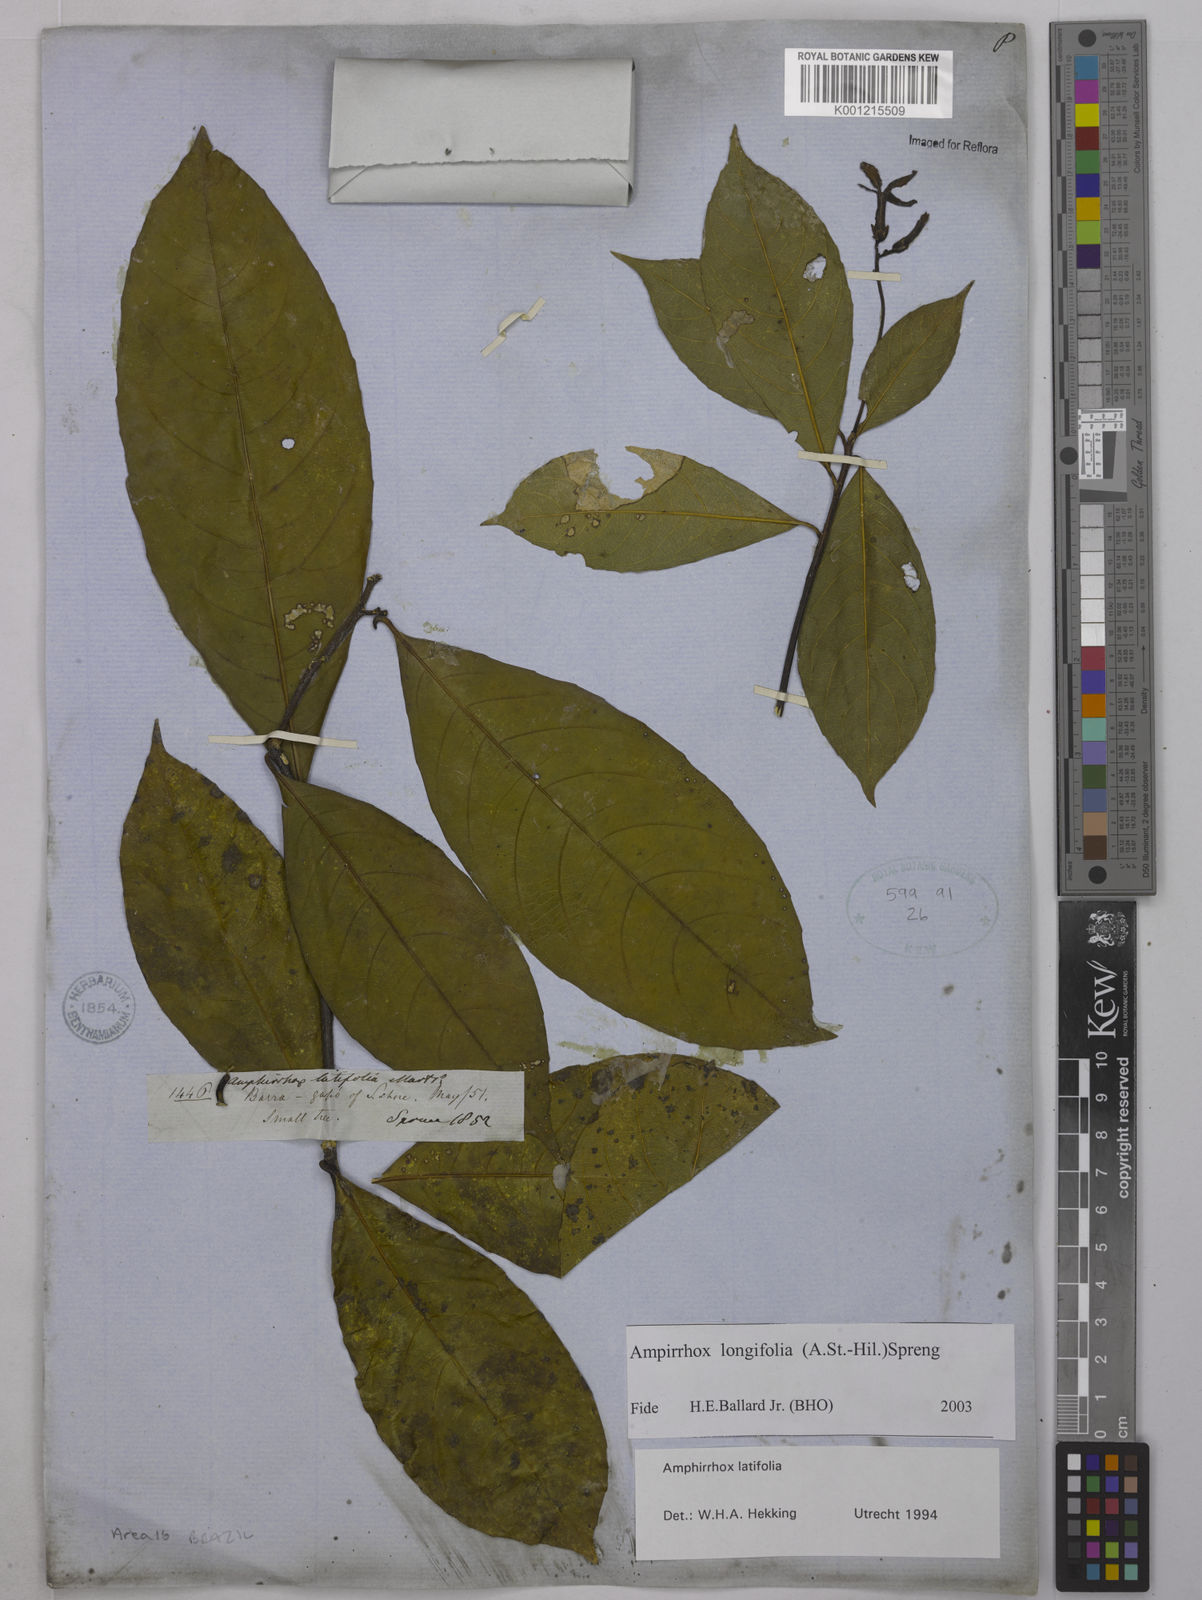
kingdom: Plantae
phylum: Tracheophyta
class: Magnoliopsida
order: Malpighiales
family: Violaceae
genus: Amphirrhox
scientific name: Amphirrhox longifolia
